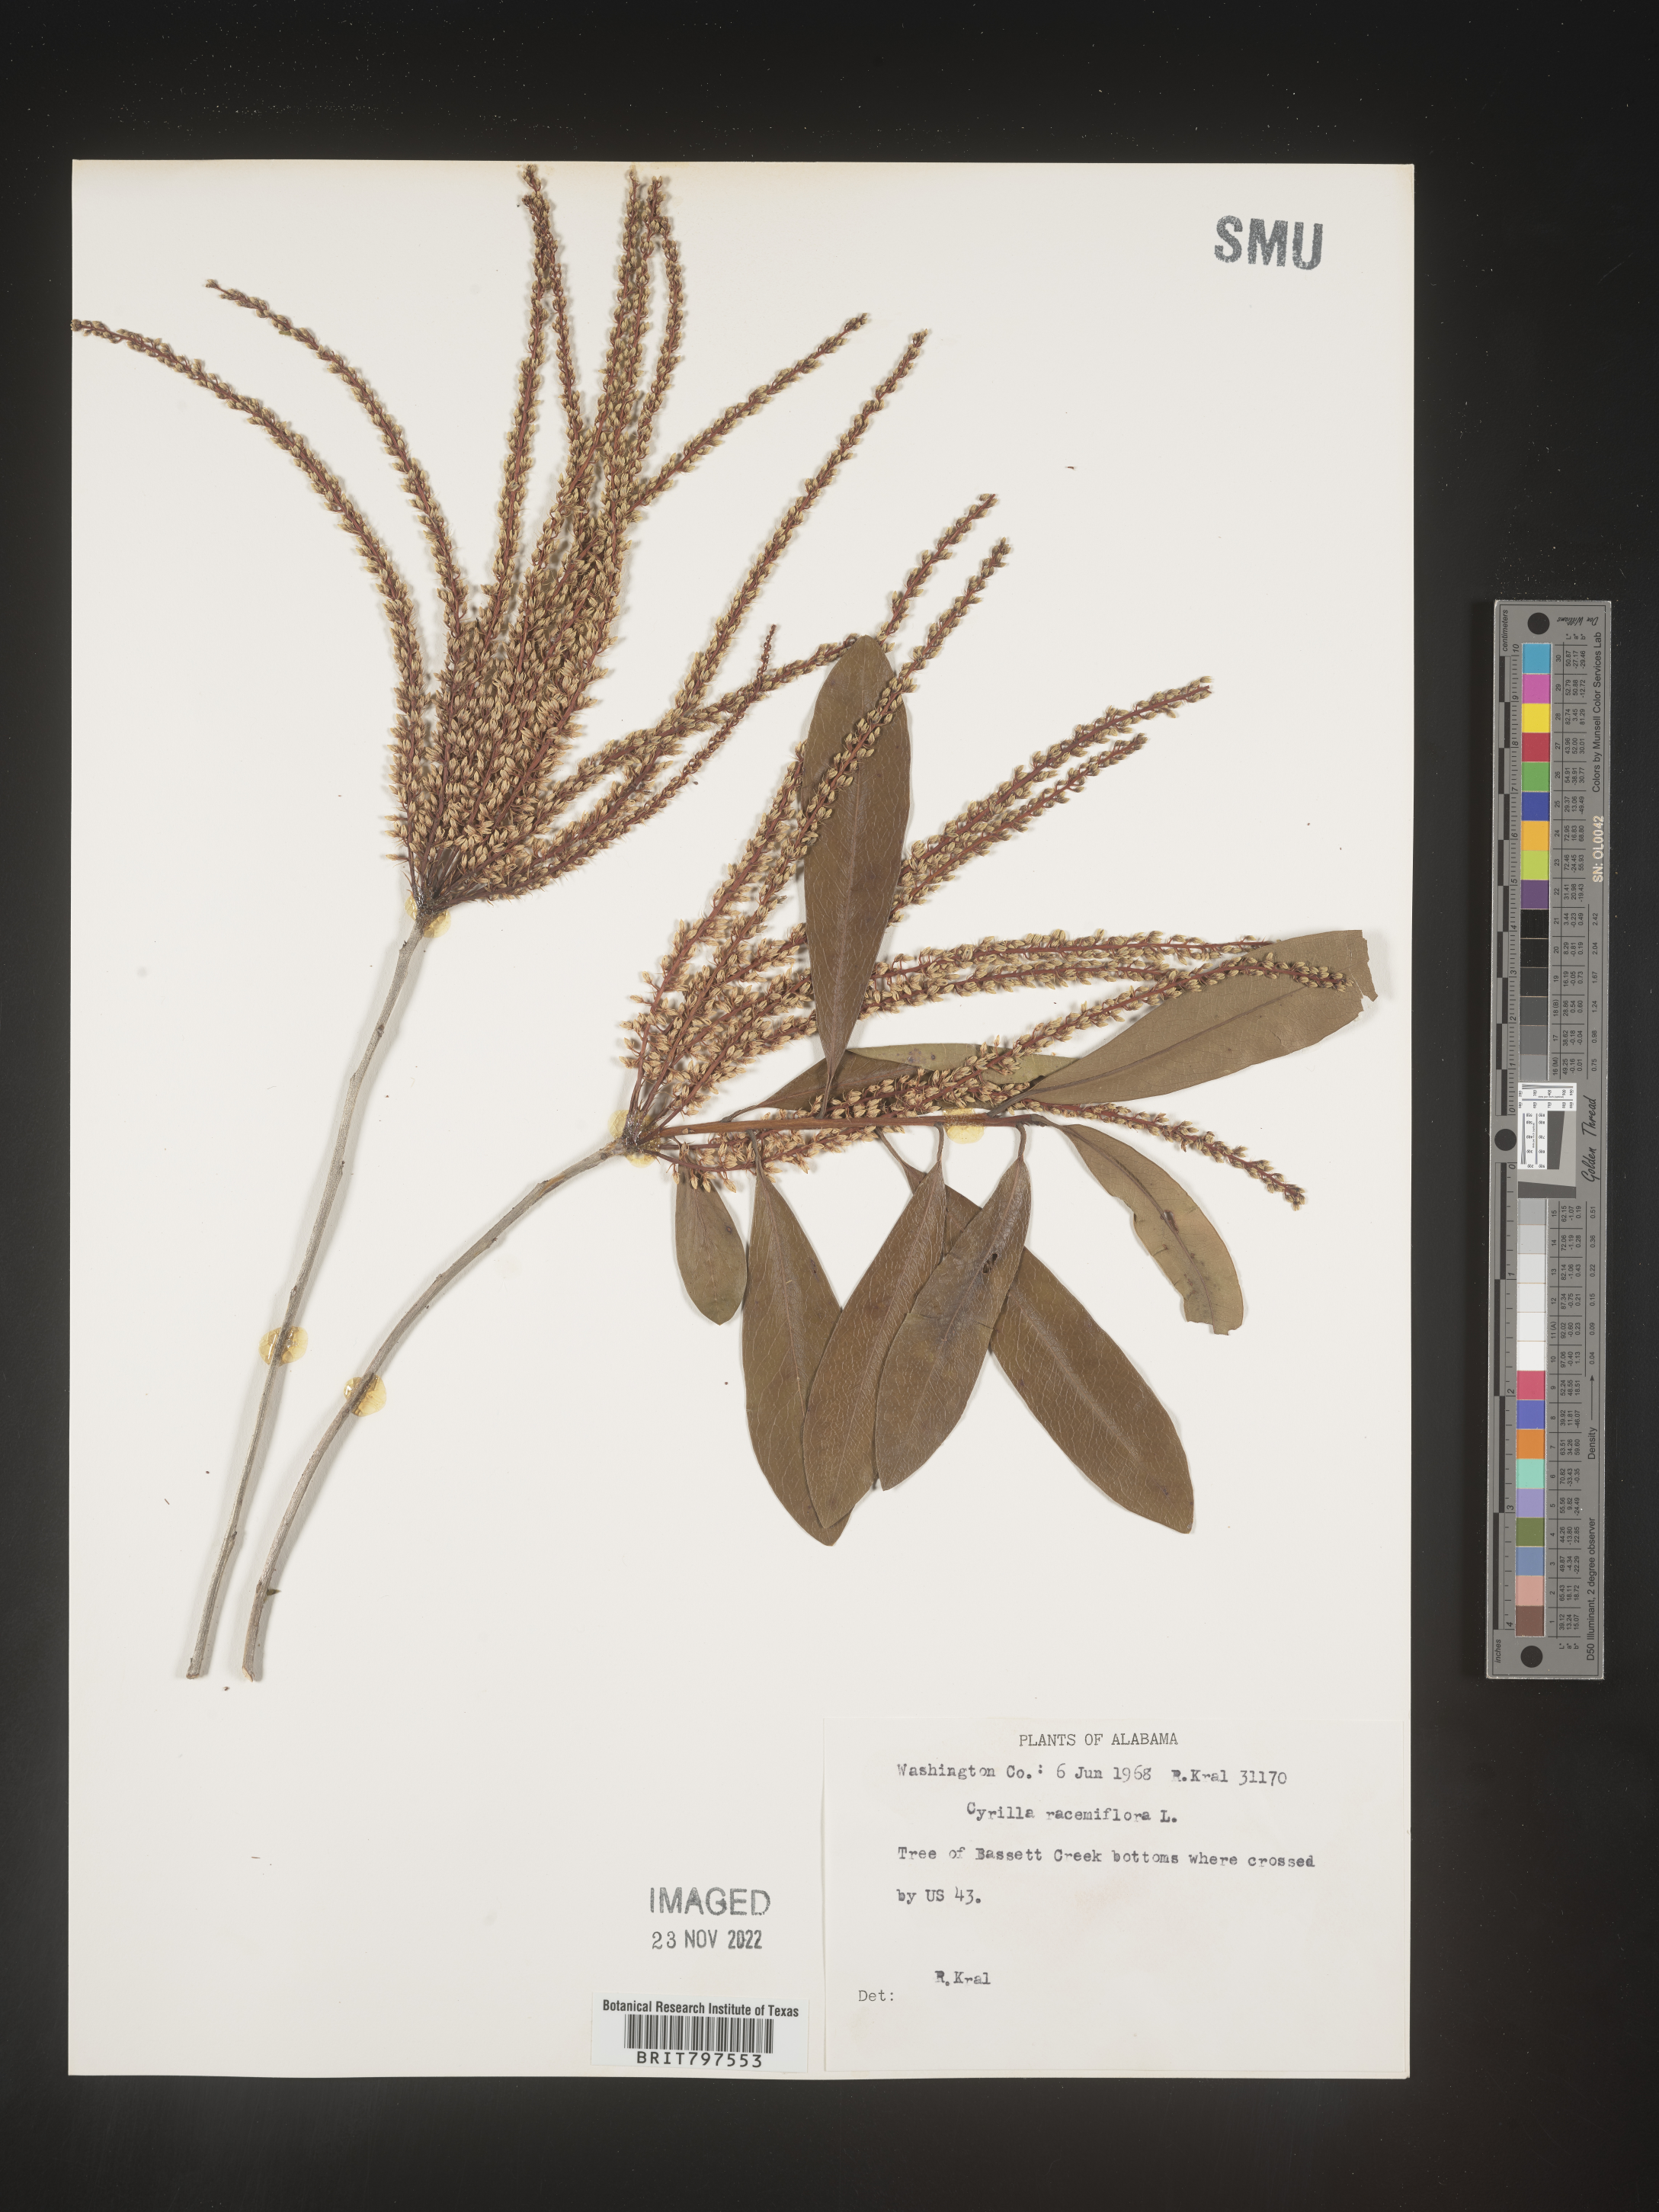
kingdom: Plantae
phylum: Tracheophyta
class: Magnoliopsida
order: Ericales
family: Cyrillaceae
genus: Cyrilla
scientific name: Cyrilla racemiflora
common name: Black titi
